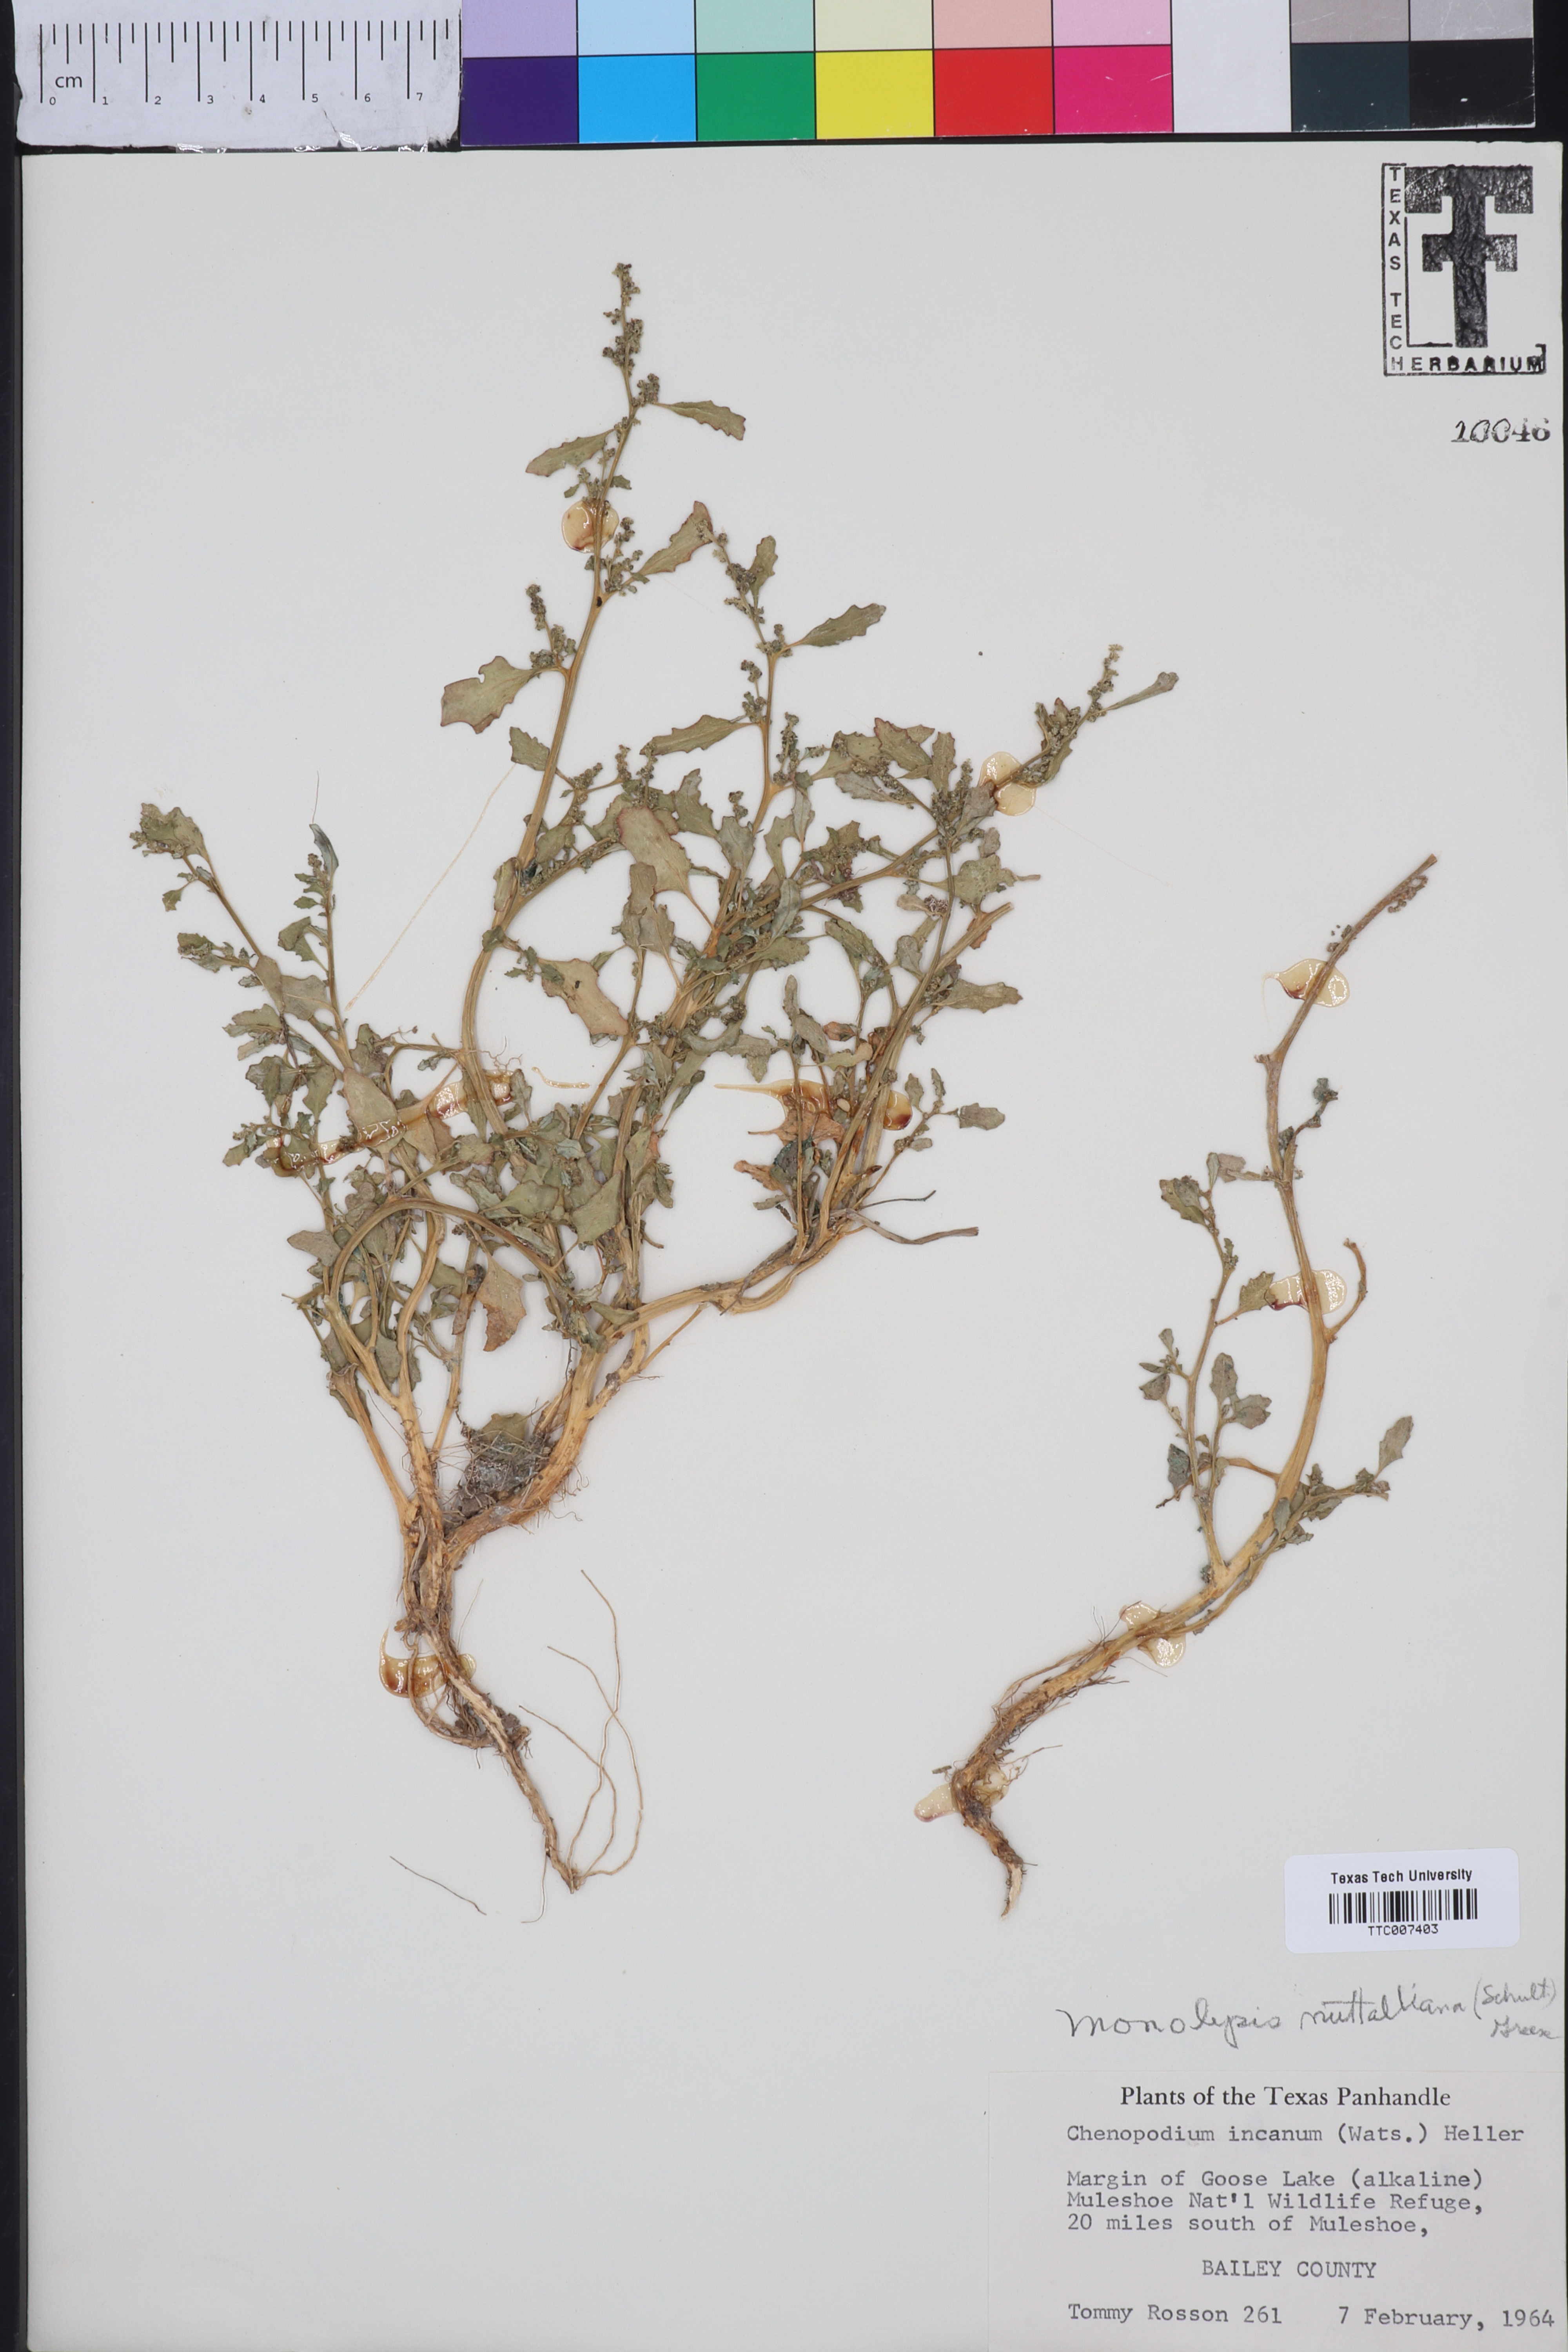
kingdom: Plantae
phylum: Tracheophyta
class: Magnoliopsida
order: Caryophyllales
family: Amaranthaceae
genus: Blitum
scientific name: Blitum nuttallianum
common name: Poverty-weed
